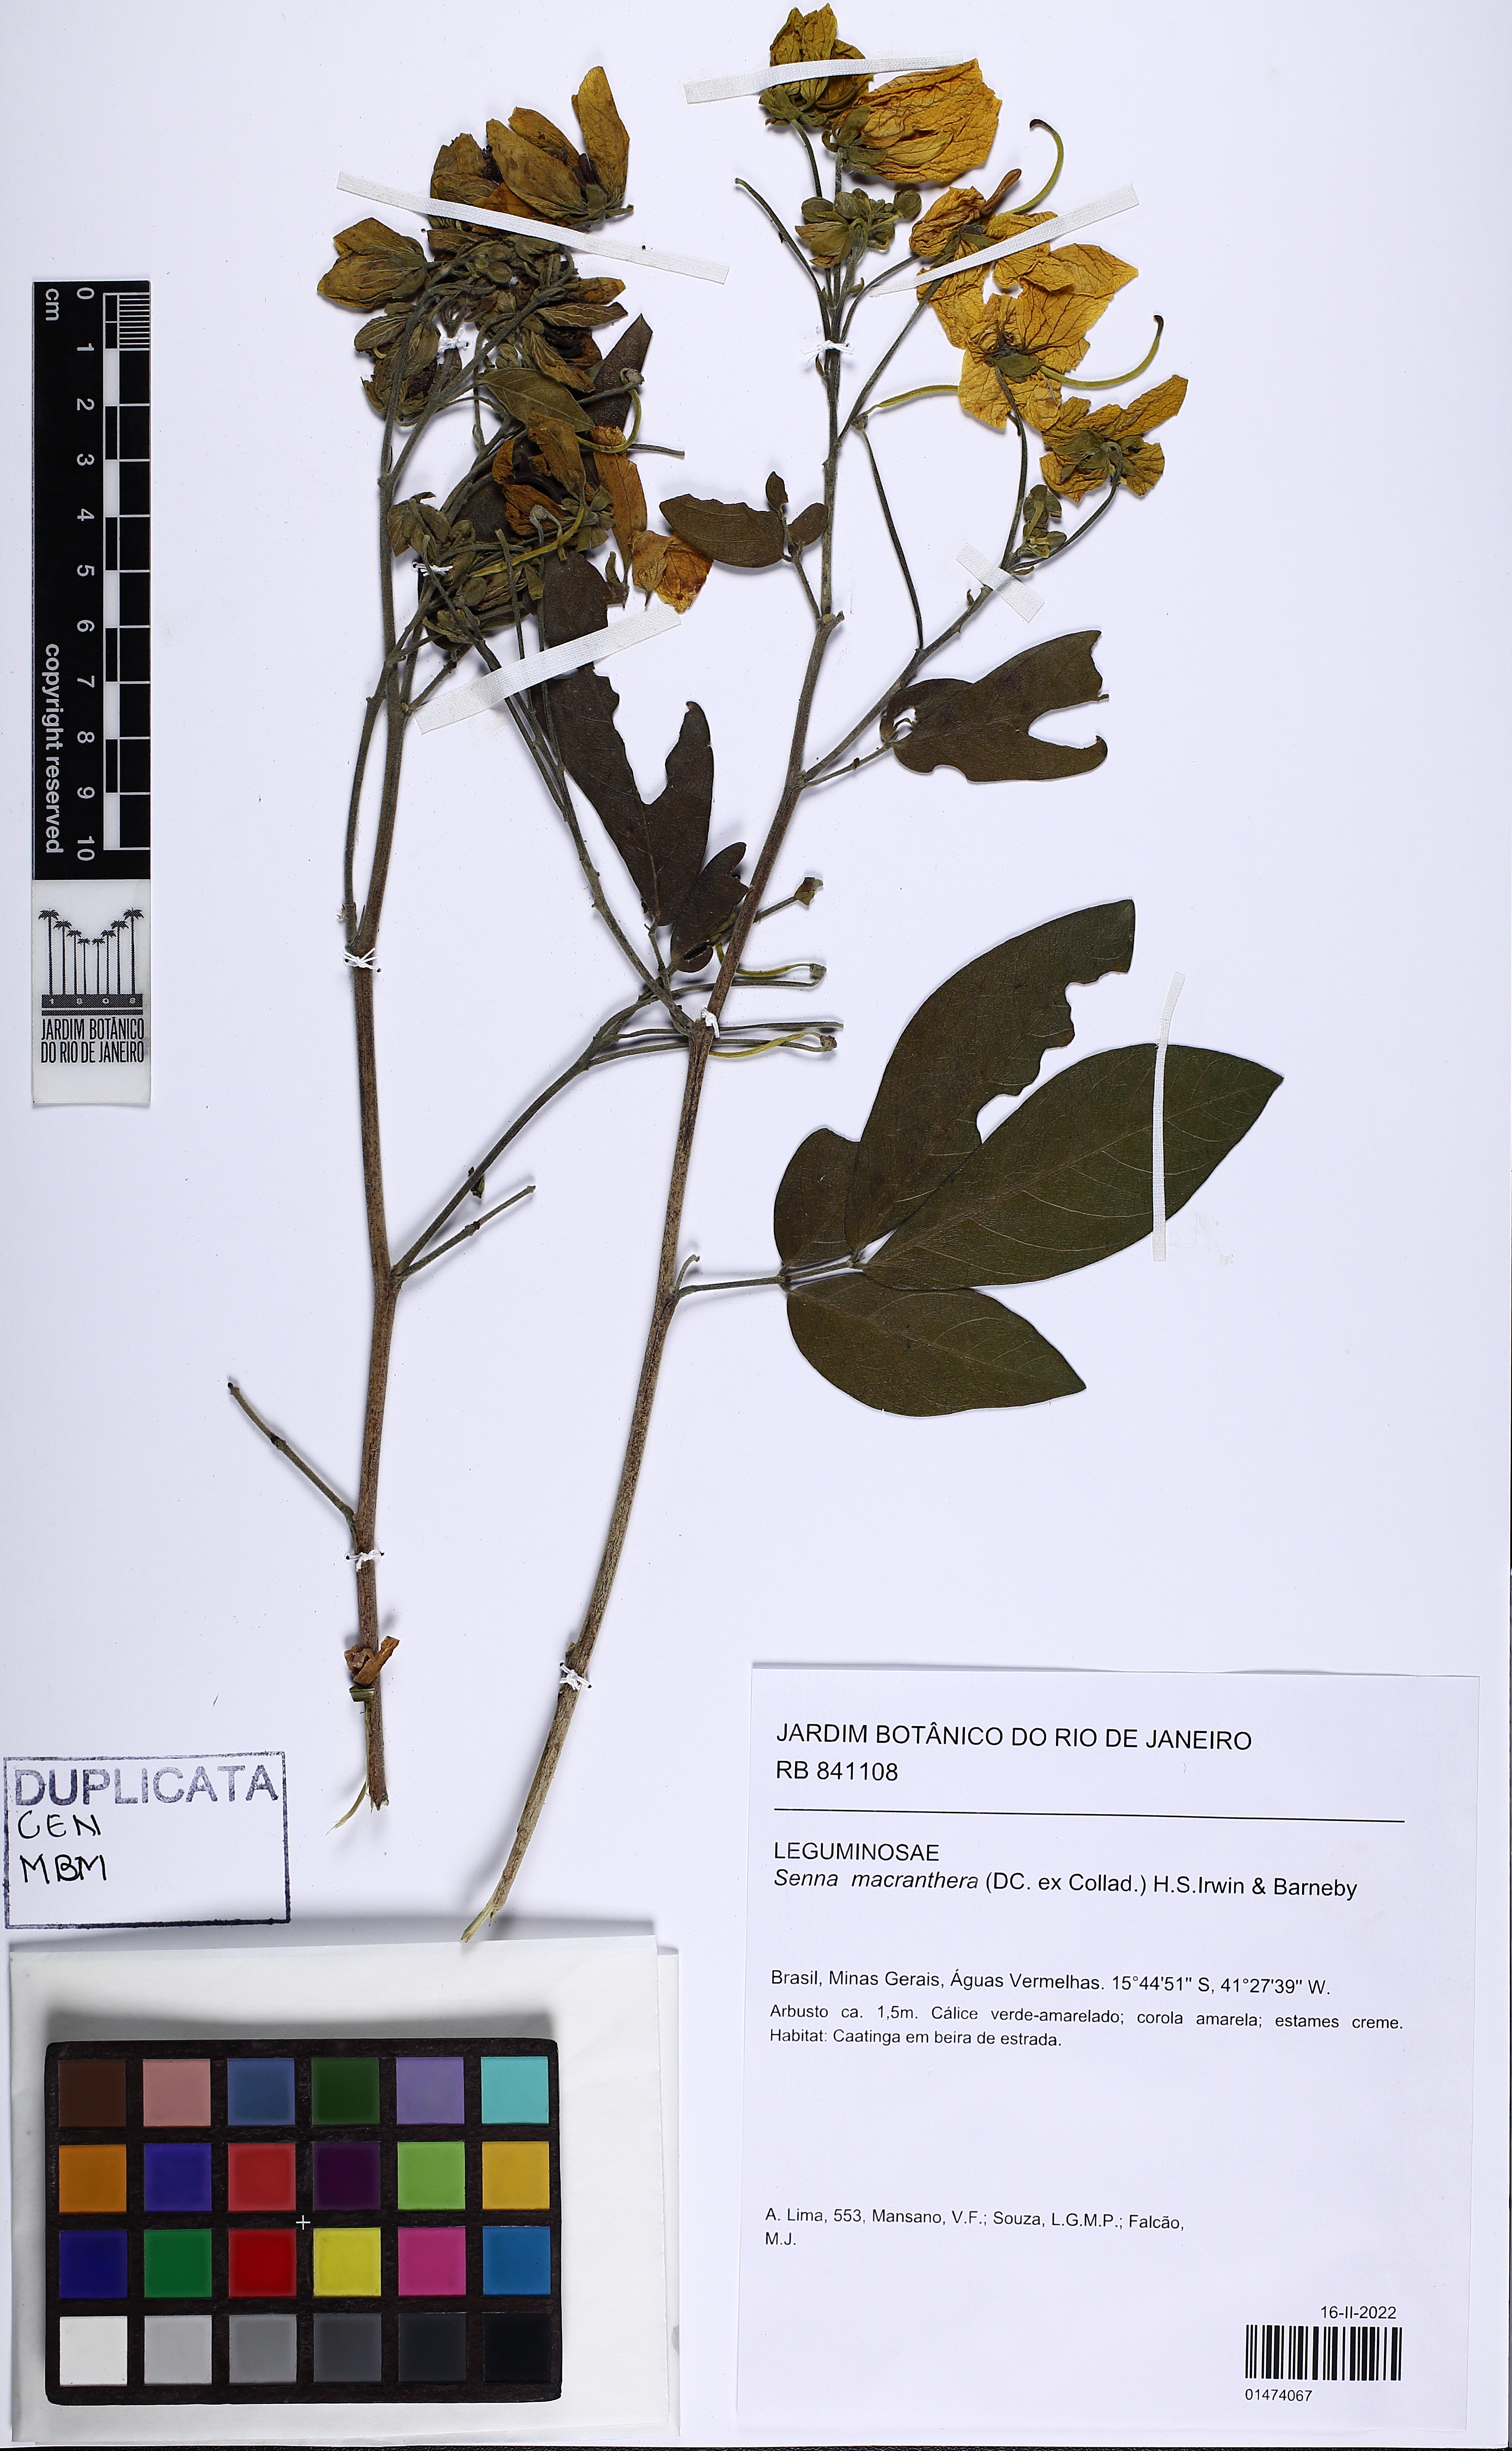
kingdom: Plantae
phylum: Tracheophyta
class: Magnoliopsida
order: Fabales
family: Fabaceae
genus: Senna
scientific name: Senna macranthera
